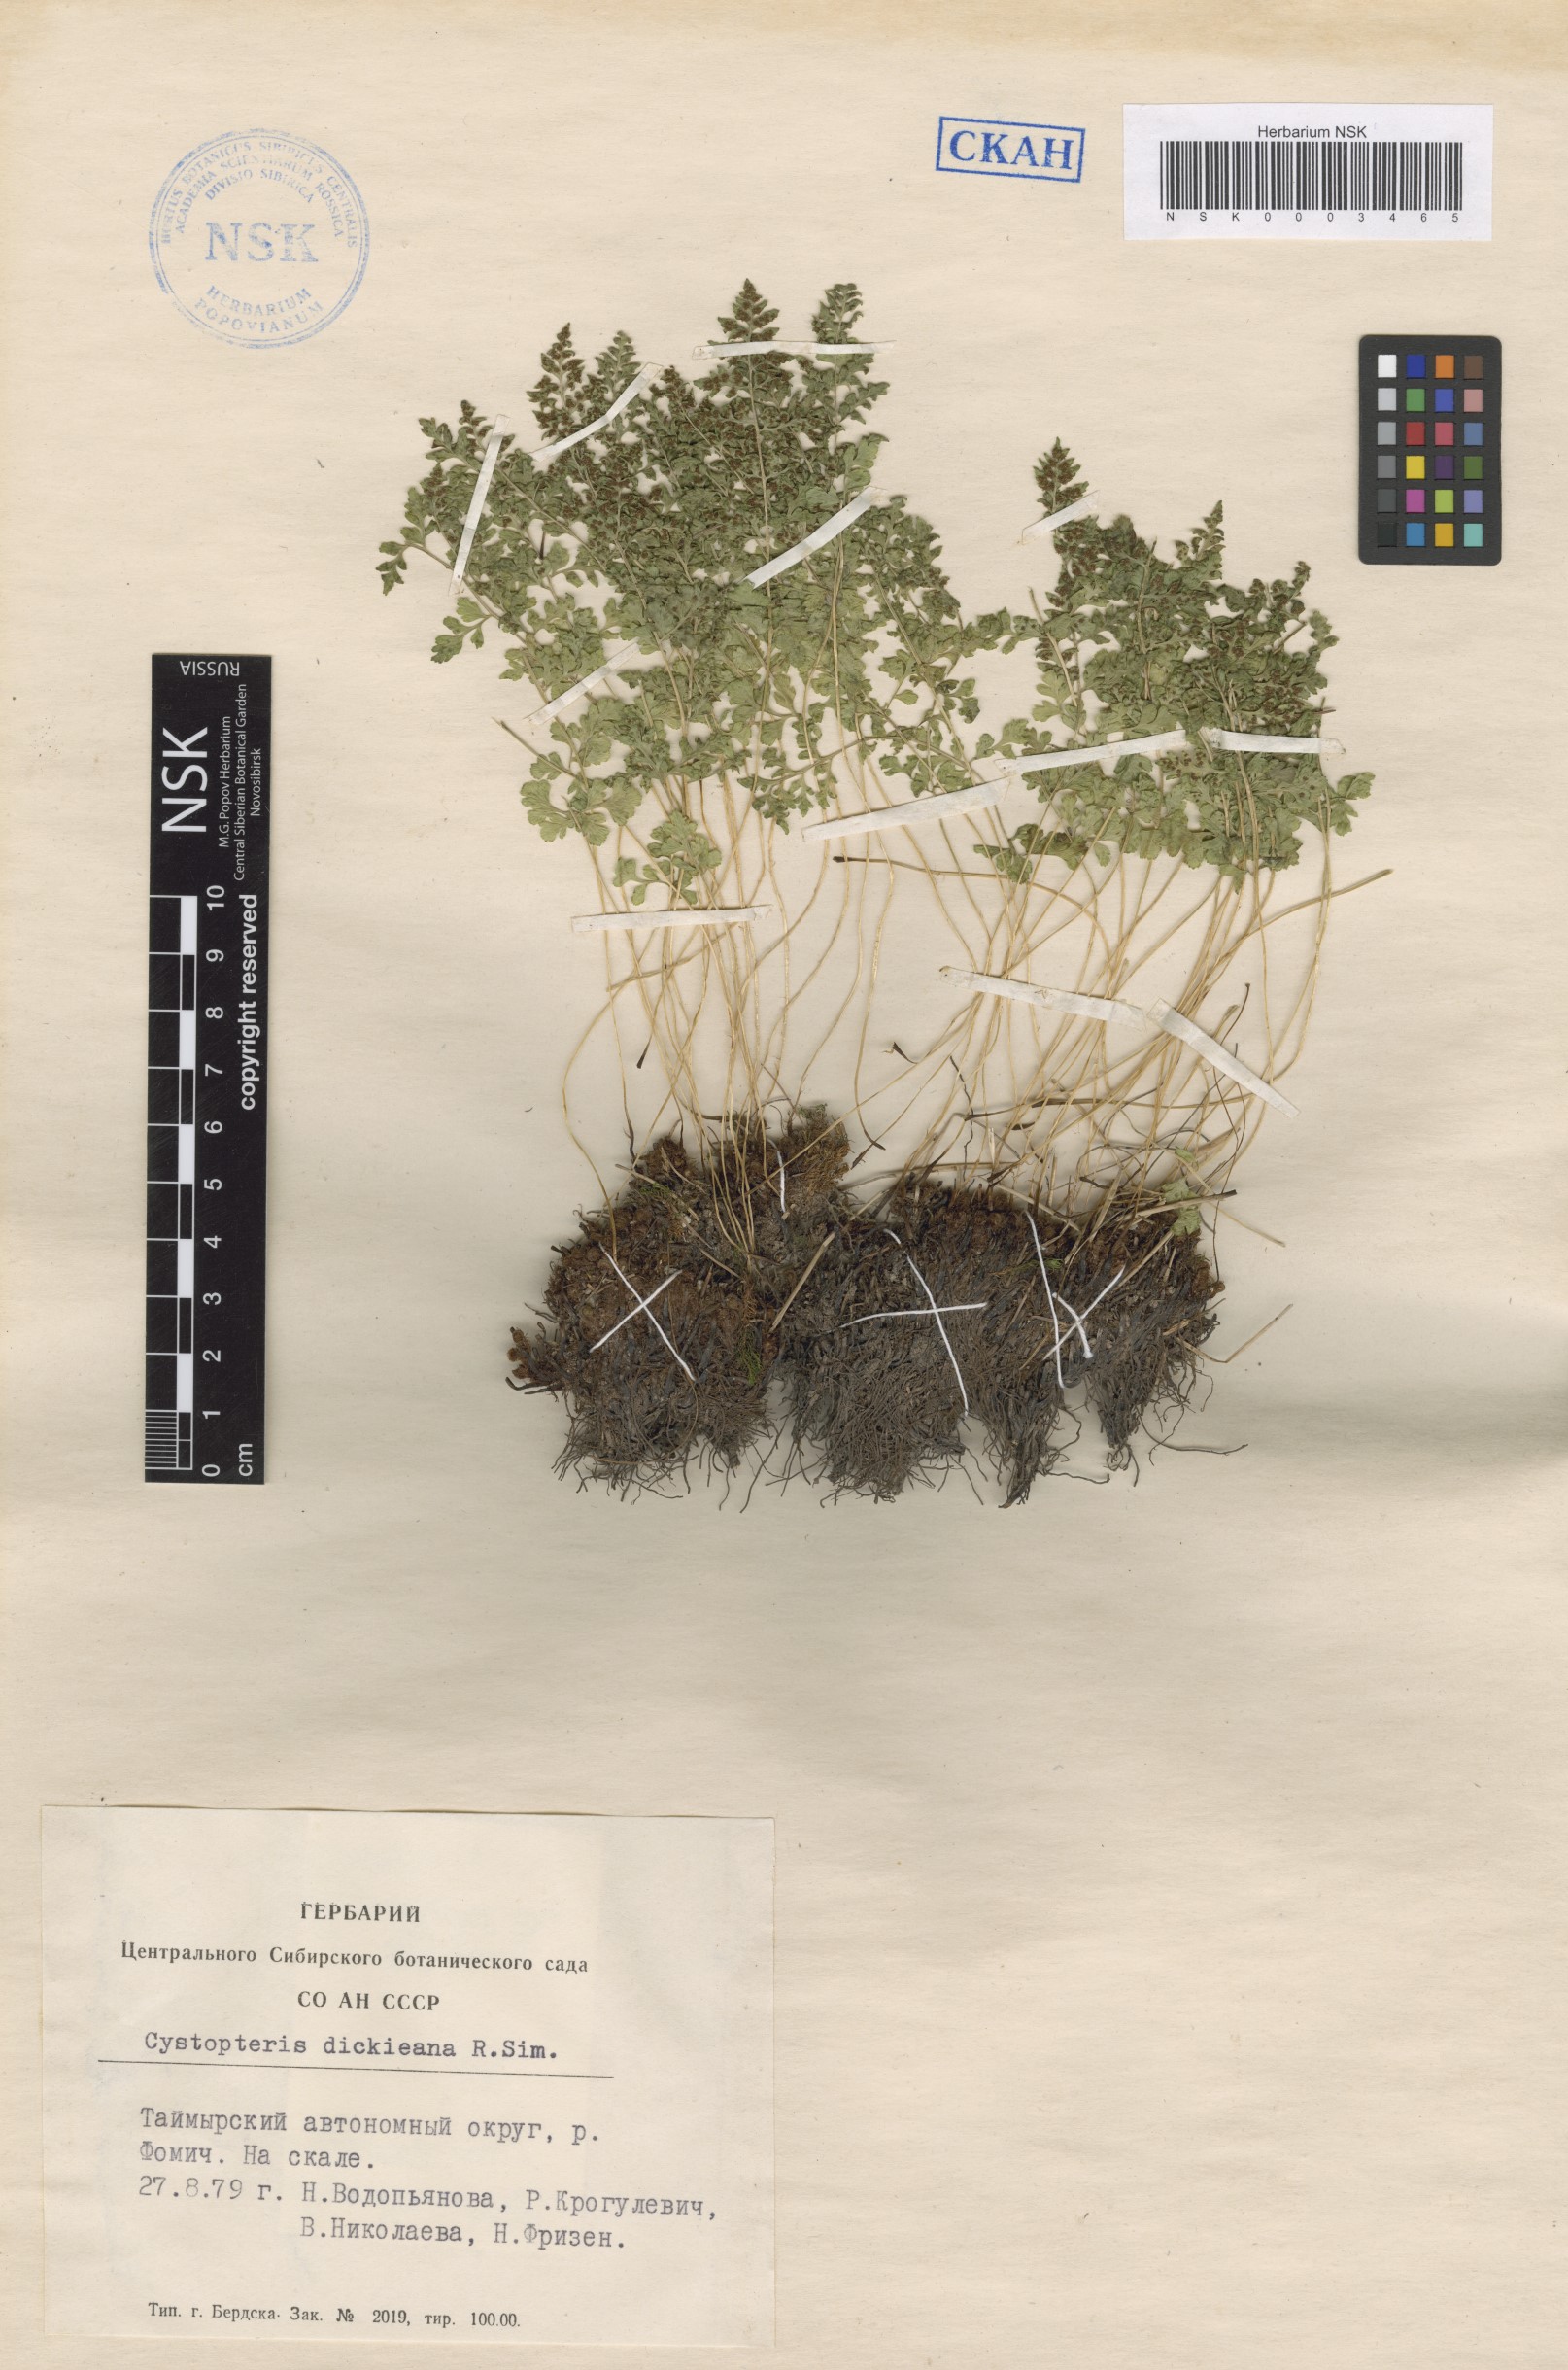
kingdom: Plantae
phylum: Tracheophyta
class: Polypodiopsida
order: Polypodiales
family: Cystopteridaceae
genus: Cystopteris
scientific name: Cystopteris dickieana
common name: Dickie's bladder-fern
